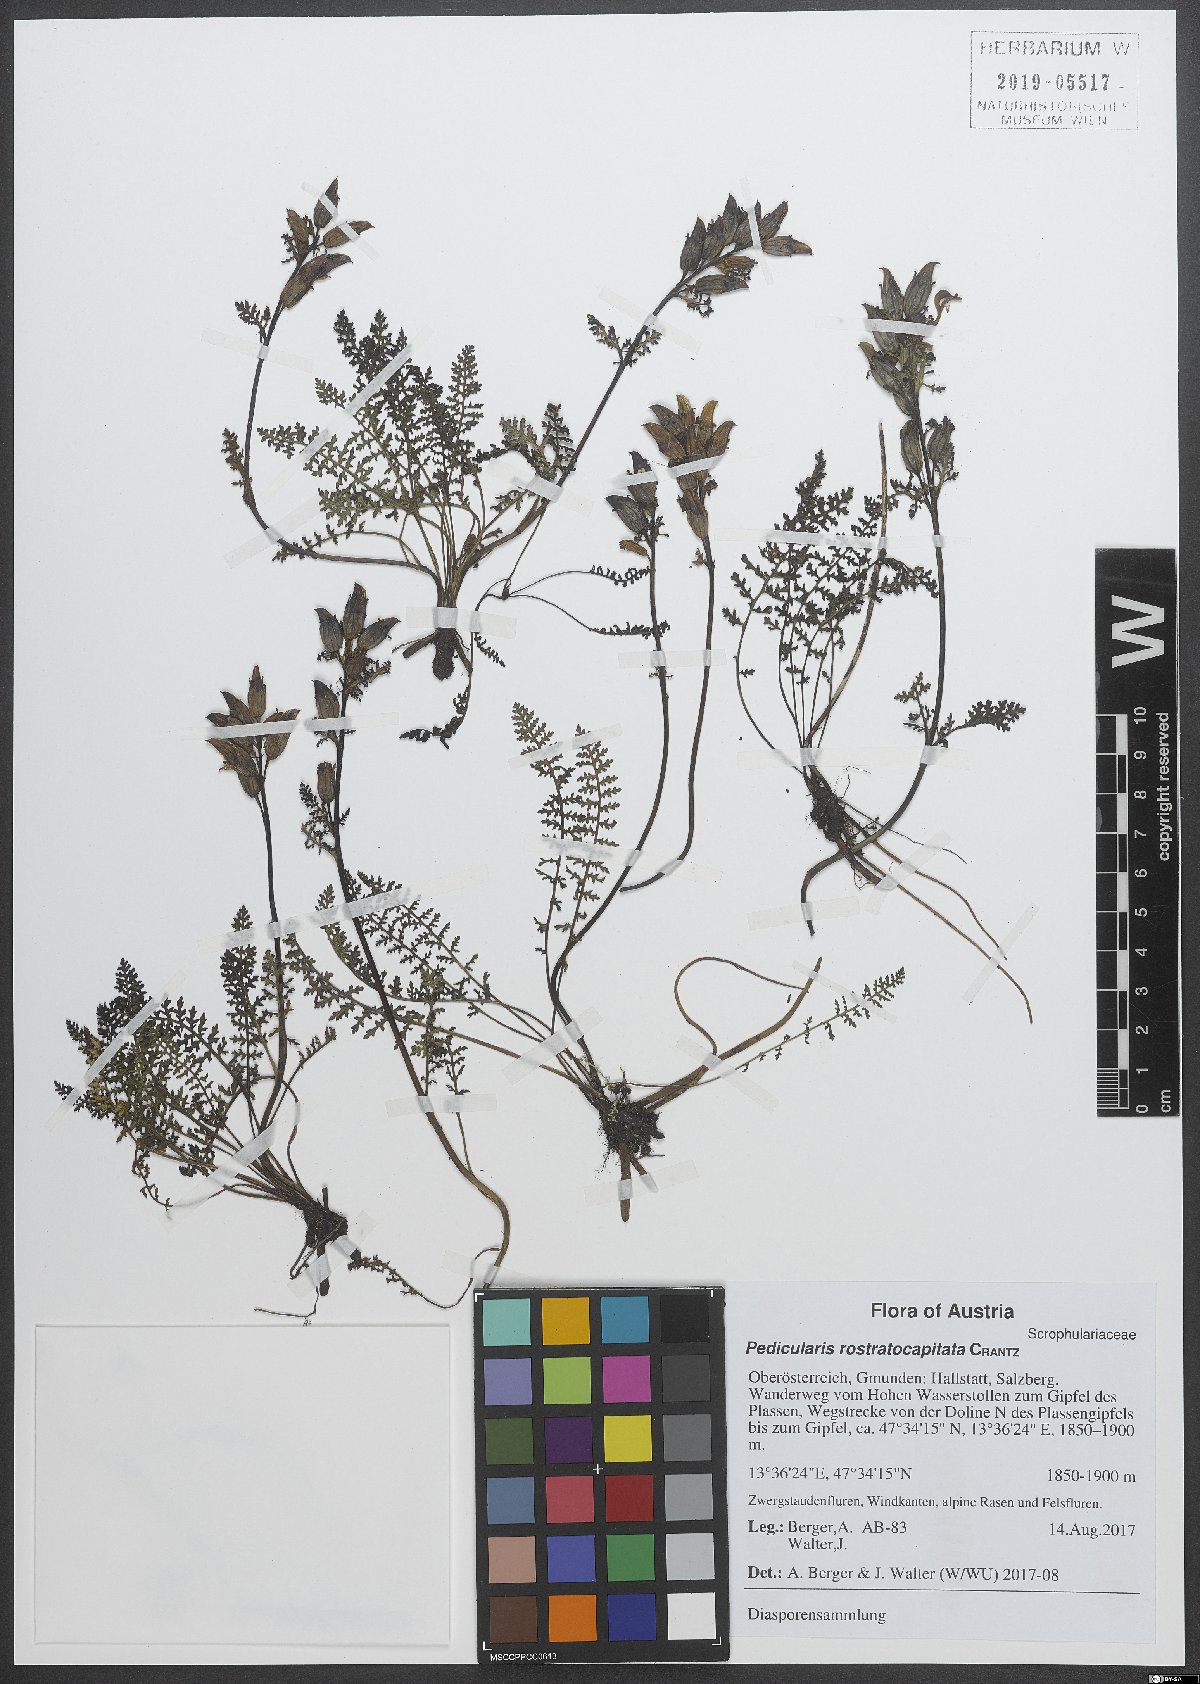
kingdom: Plantae
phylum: Tracheophyta
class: Magnoliopsida
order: Lamiales
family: Orobanchaceae
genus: Pedicularis
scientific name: Pedicularis rostratocapitata
